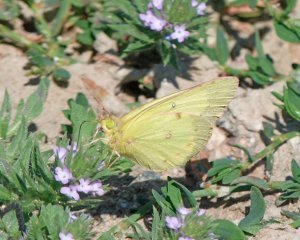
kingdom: Animalia
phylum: Arthropoda
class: Insecta
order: Lepidoptera
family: Pieridae
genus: Colias
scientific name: Colias philodice
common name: Clouded Sulphur
